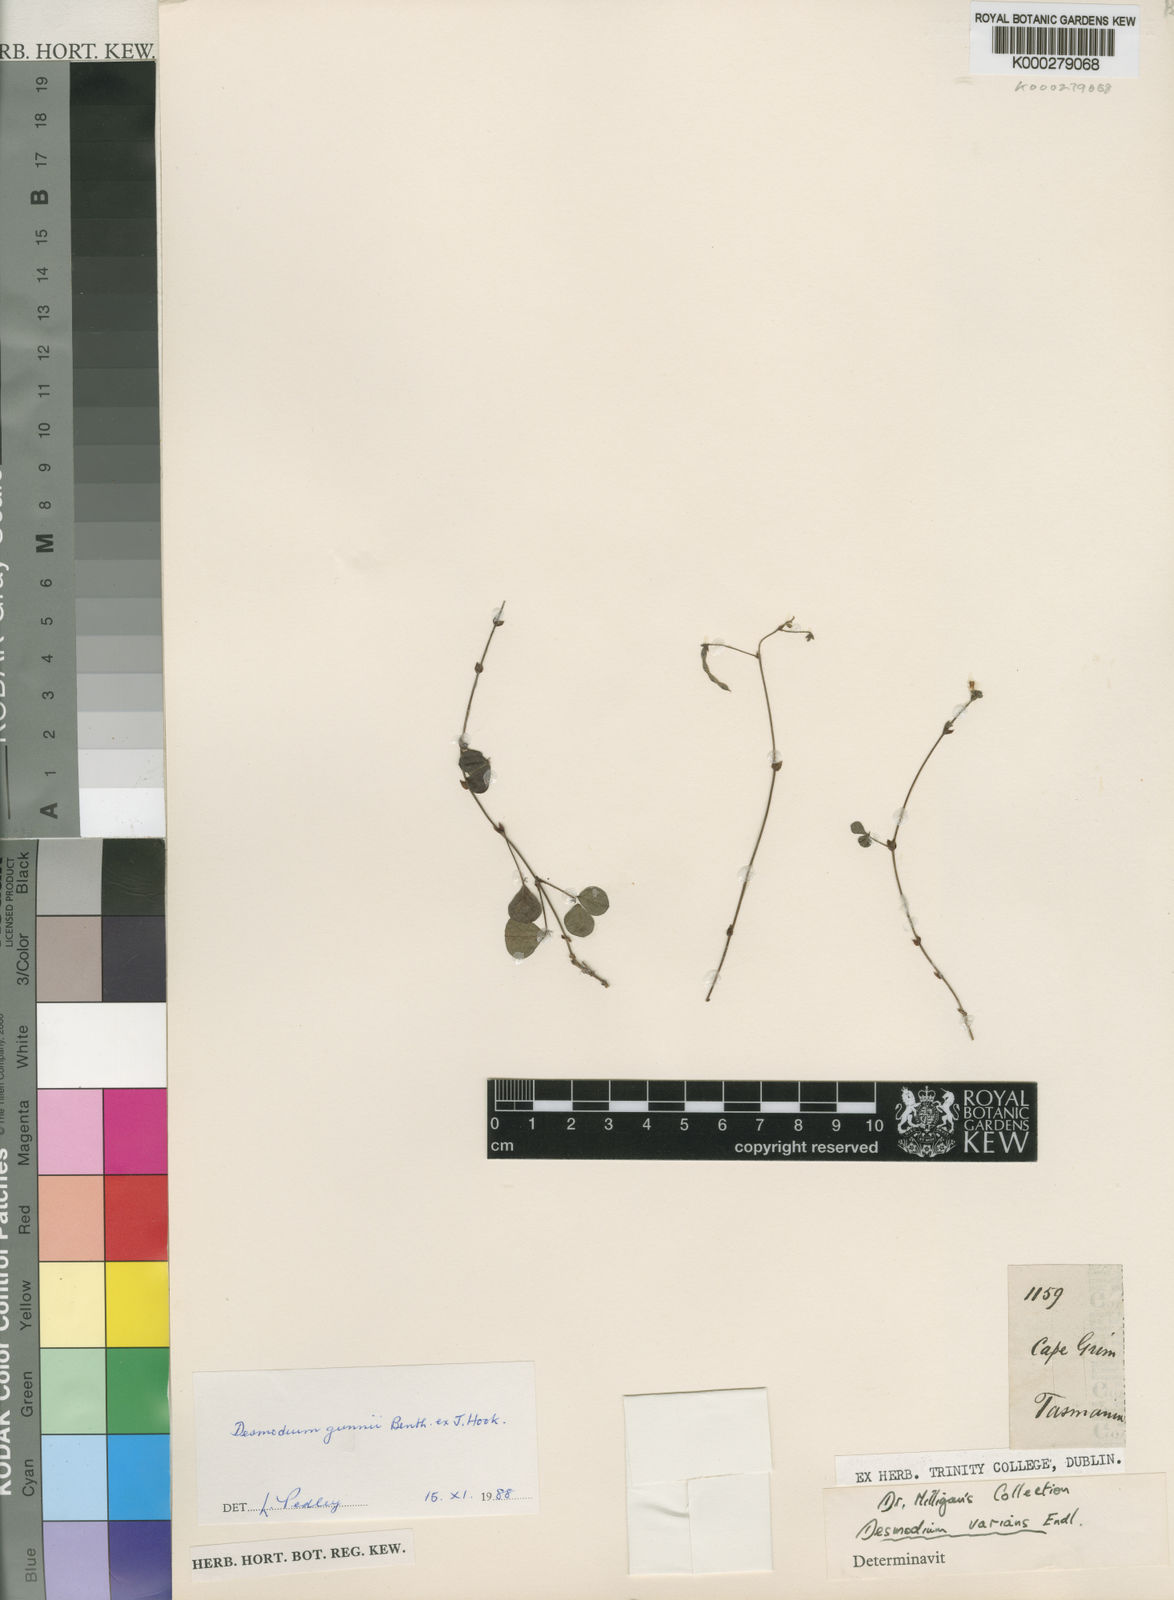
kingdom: Plantae
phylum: Tracheophyta
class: Magnoliopsida
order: Fabales
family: Fabaceae
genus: Pullenia
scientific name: Pullenia gunnii
